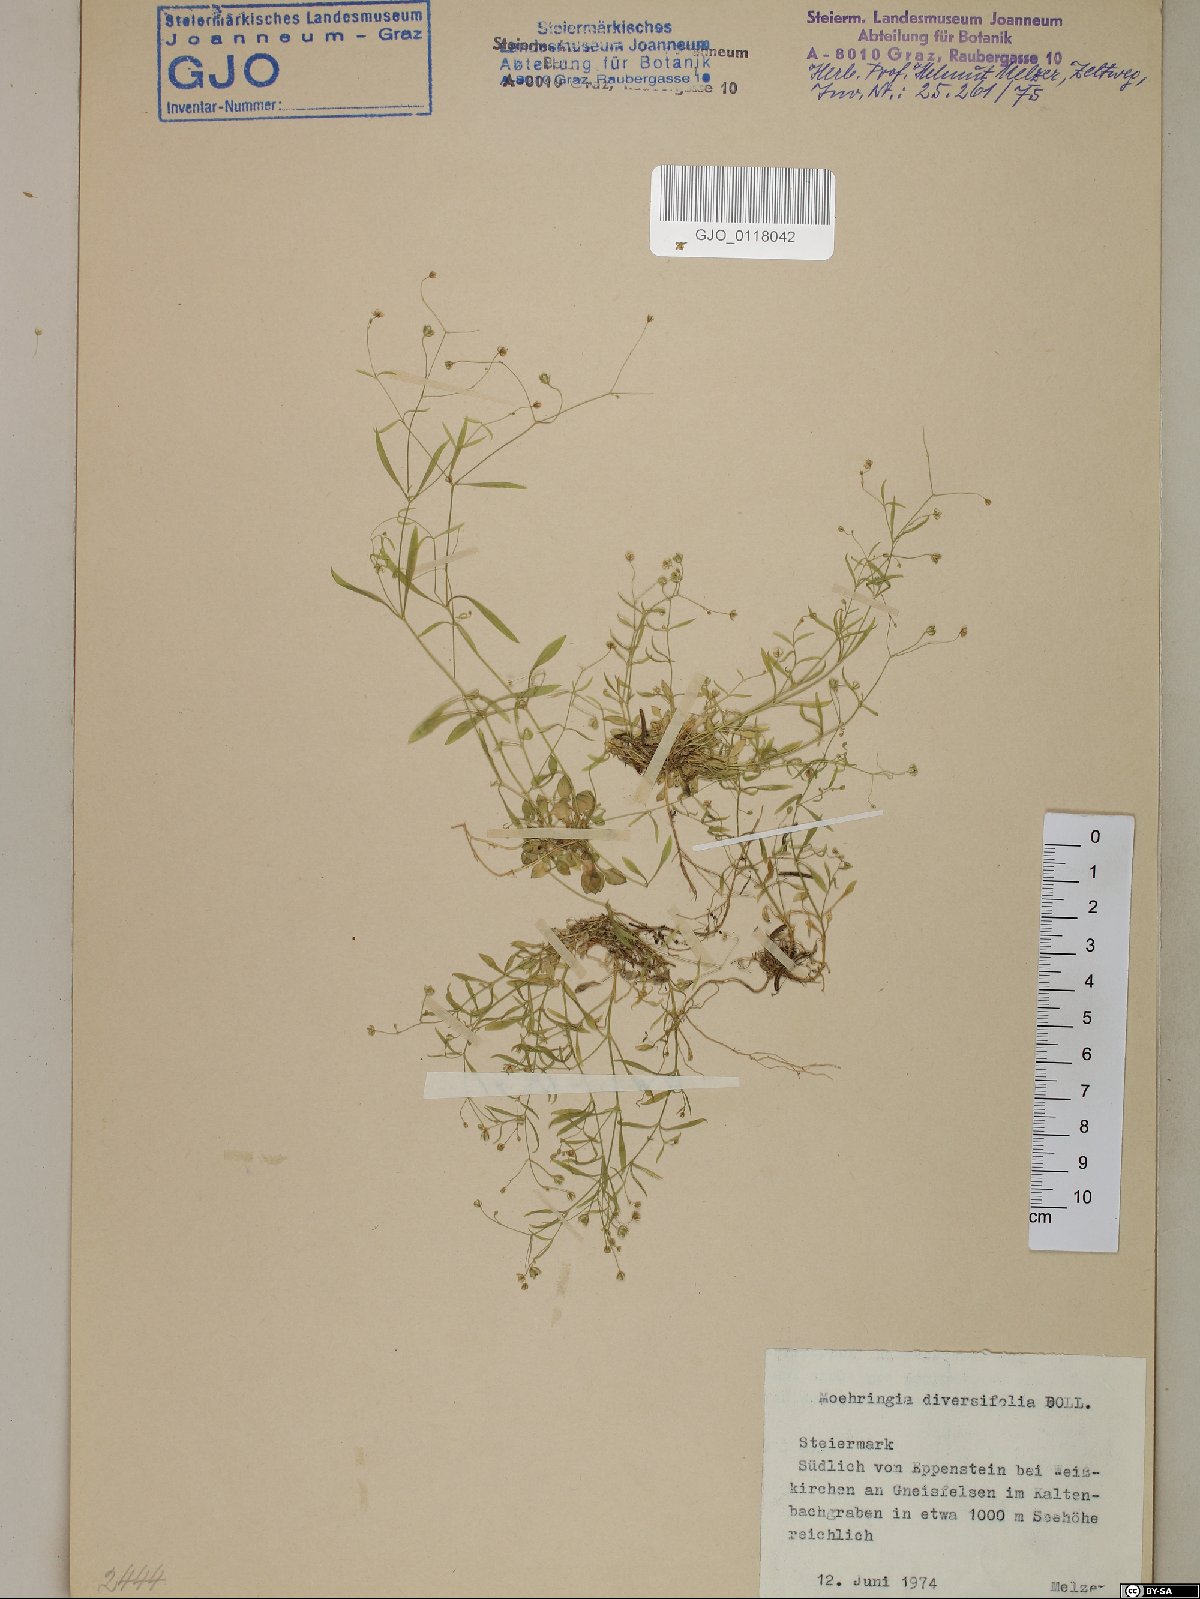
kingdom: Plantae
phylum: Tracheophyta
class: Magnoliopsida
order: Caryophyllales
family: Caryophyllaceae
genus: Moehringia
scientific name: Moehringia diversifolia
